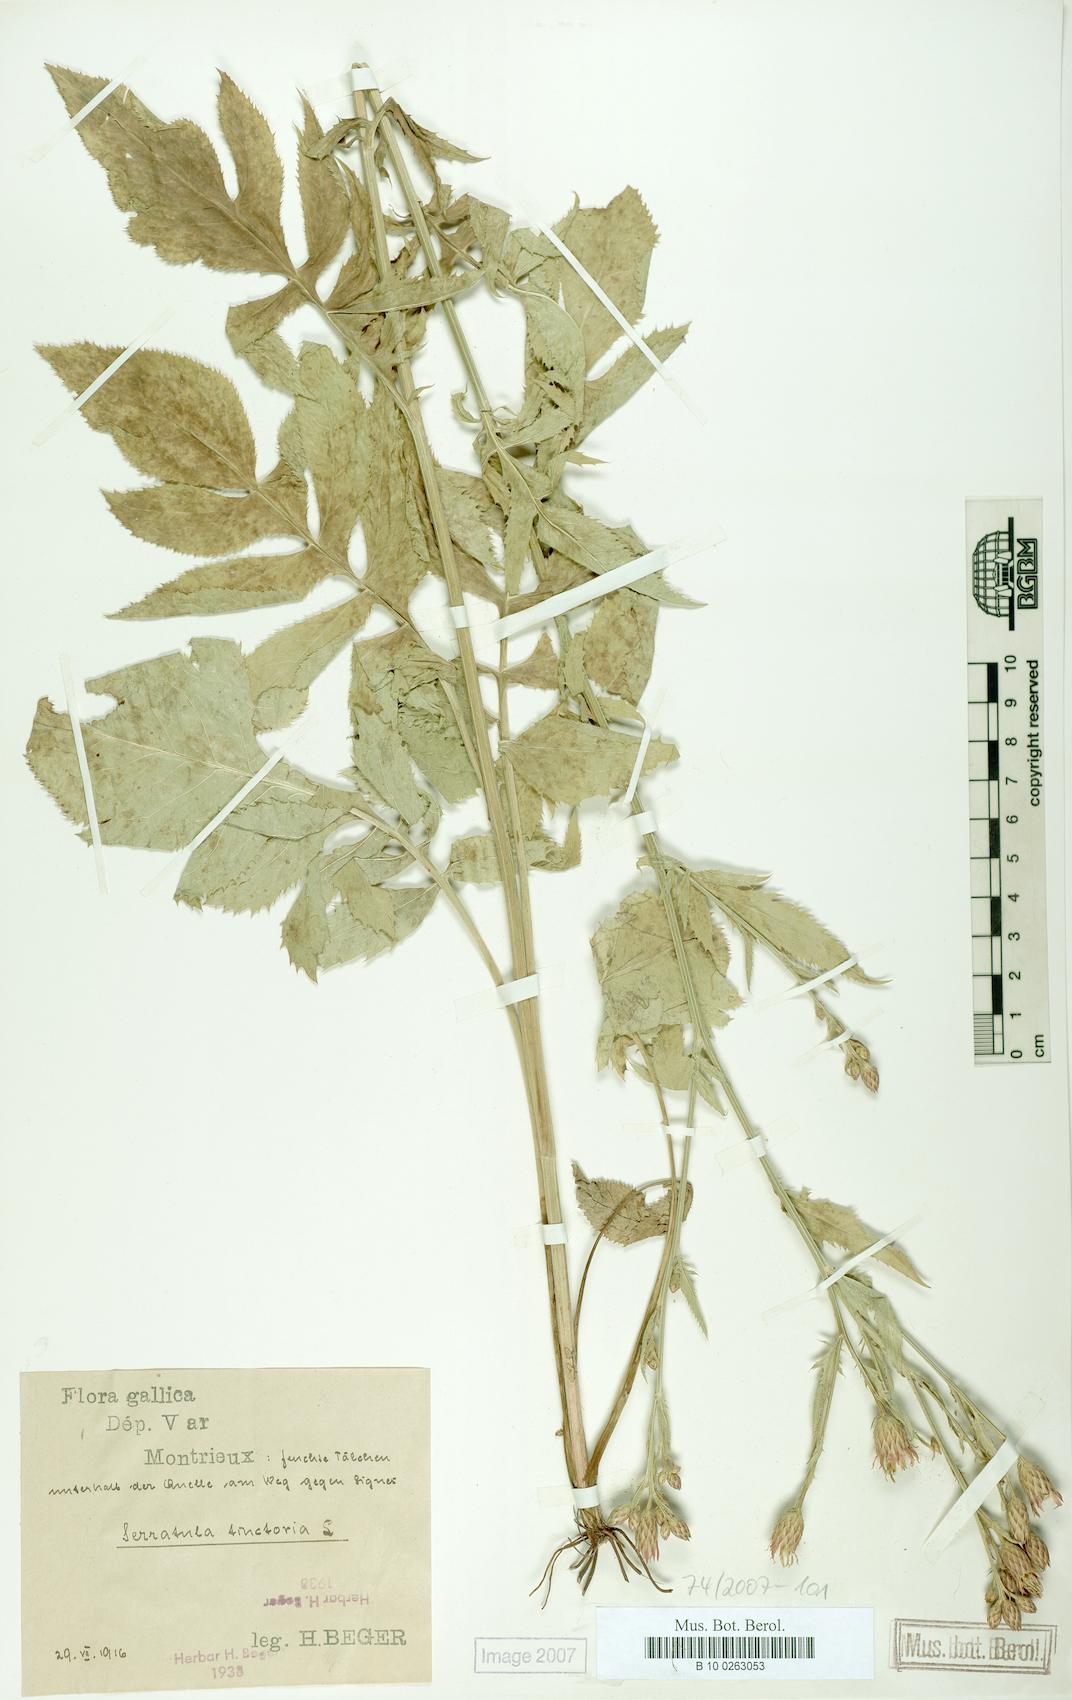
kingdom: Plantae
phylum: Tracheophyta
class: Magnoliopsida
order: Asterales
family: Asteraceae
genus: Serratula
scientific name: Serratula tinctoria
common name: Saw-wort
